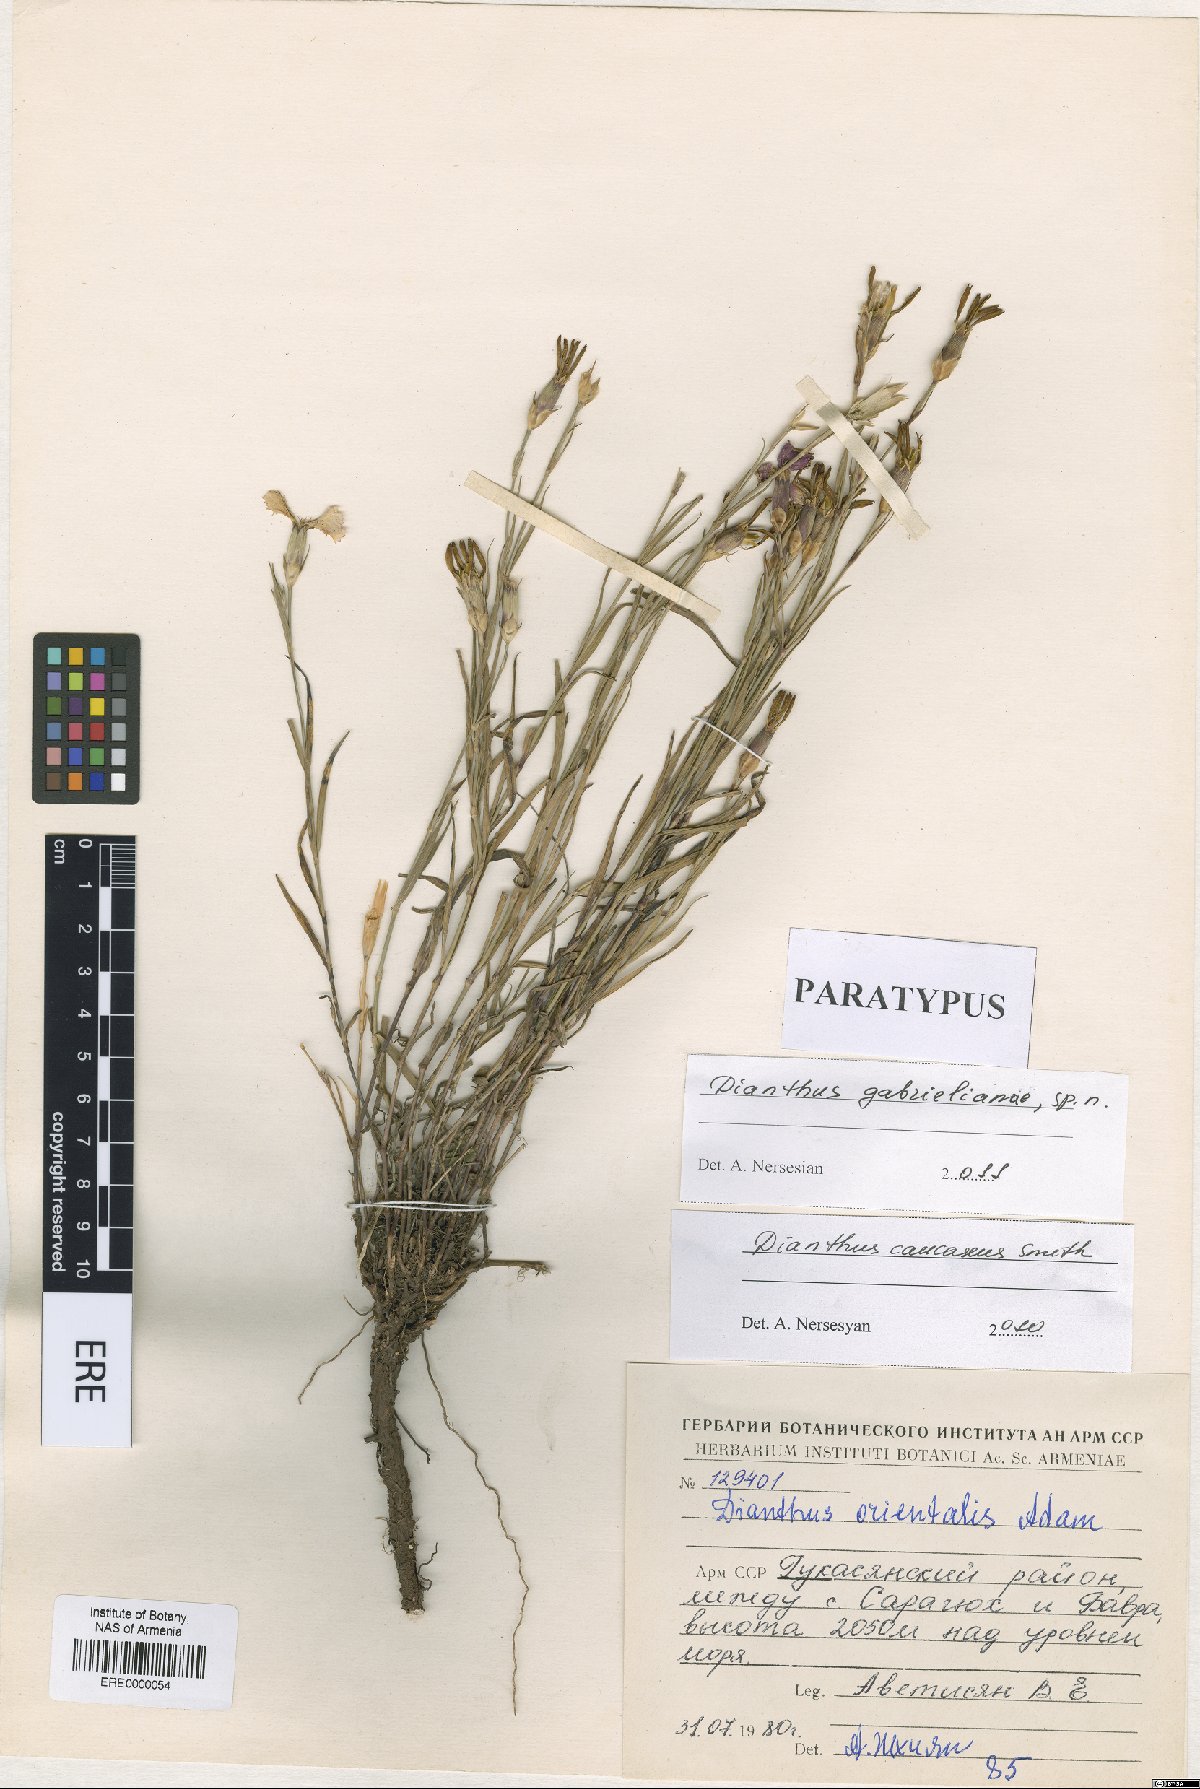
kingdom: Plantae
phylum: Tracheophyta
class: Magnoliopsida
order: Caryophyllales
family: Caryophyllaceae
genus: Dianthus
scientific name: Dianthus gabrielianae
